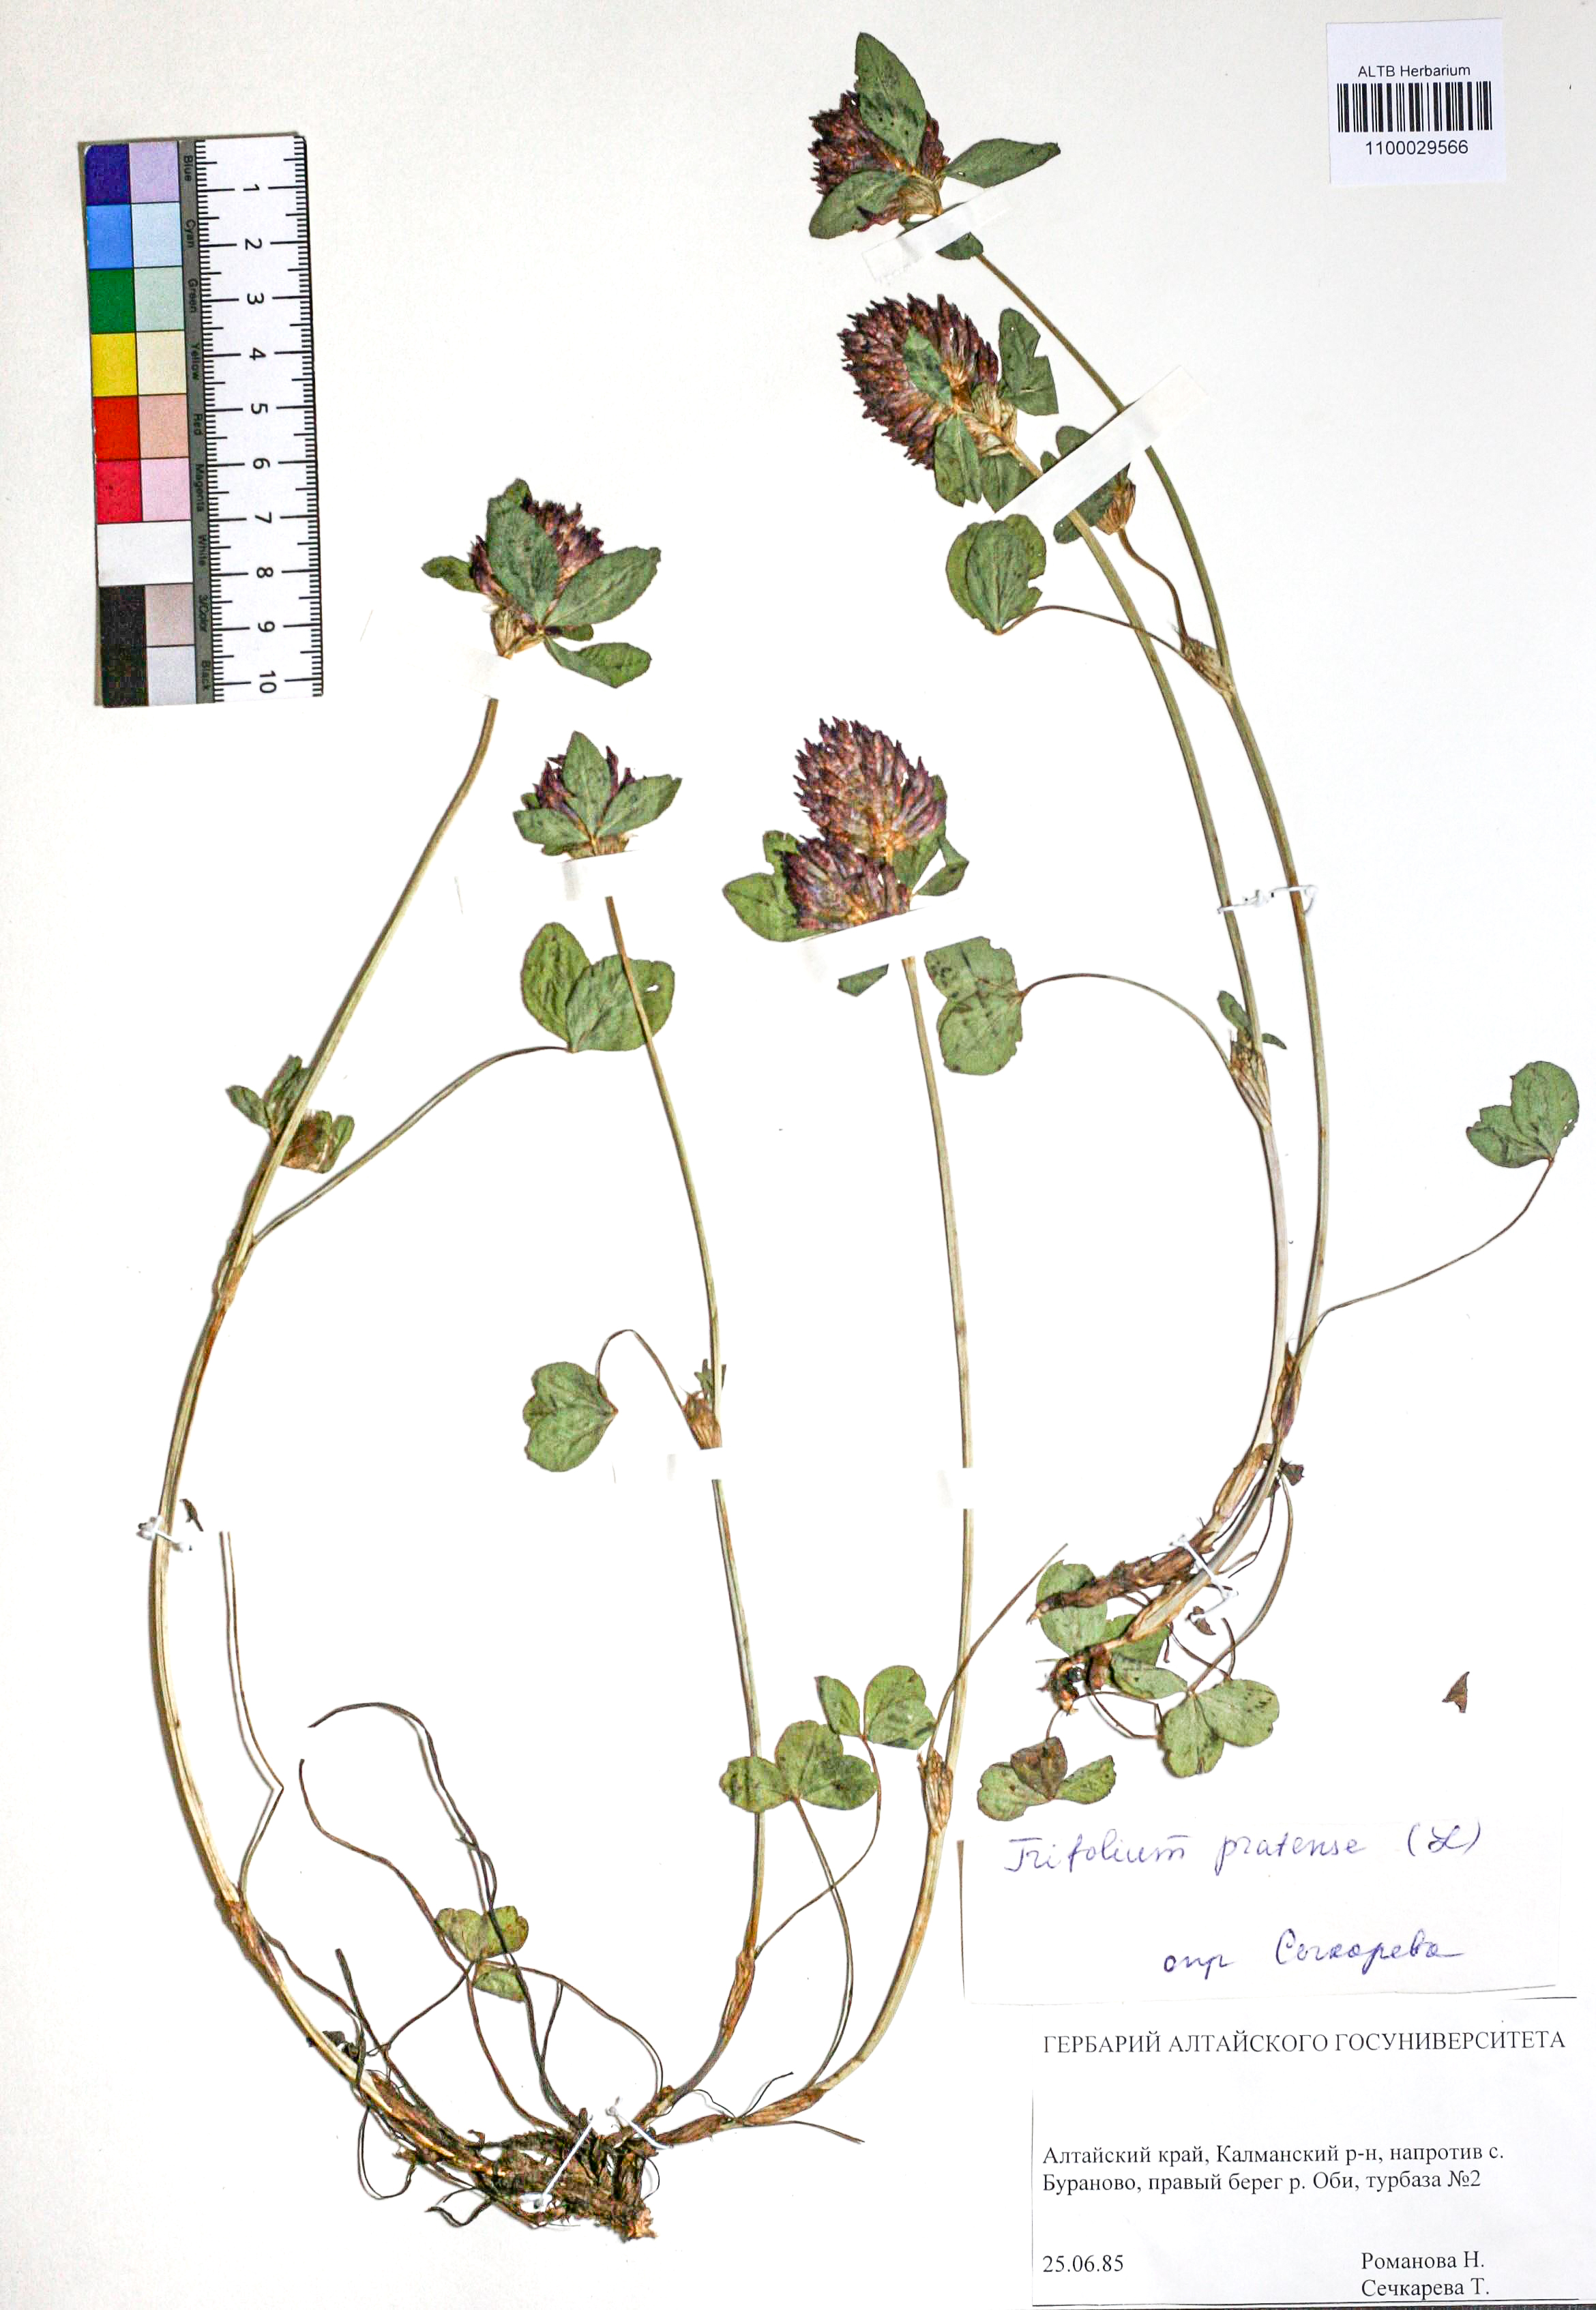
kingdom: Plantae
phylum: Tracheophyta
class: Magnoliopsida
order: Fabales
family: Fabaceae
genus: Trifolium
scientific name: Trifolium pratense
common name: Red clover
